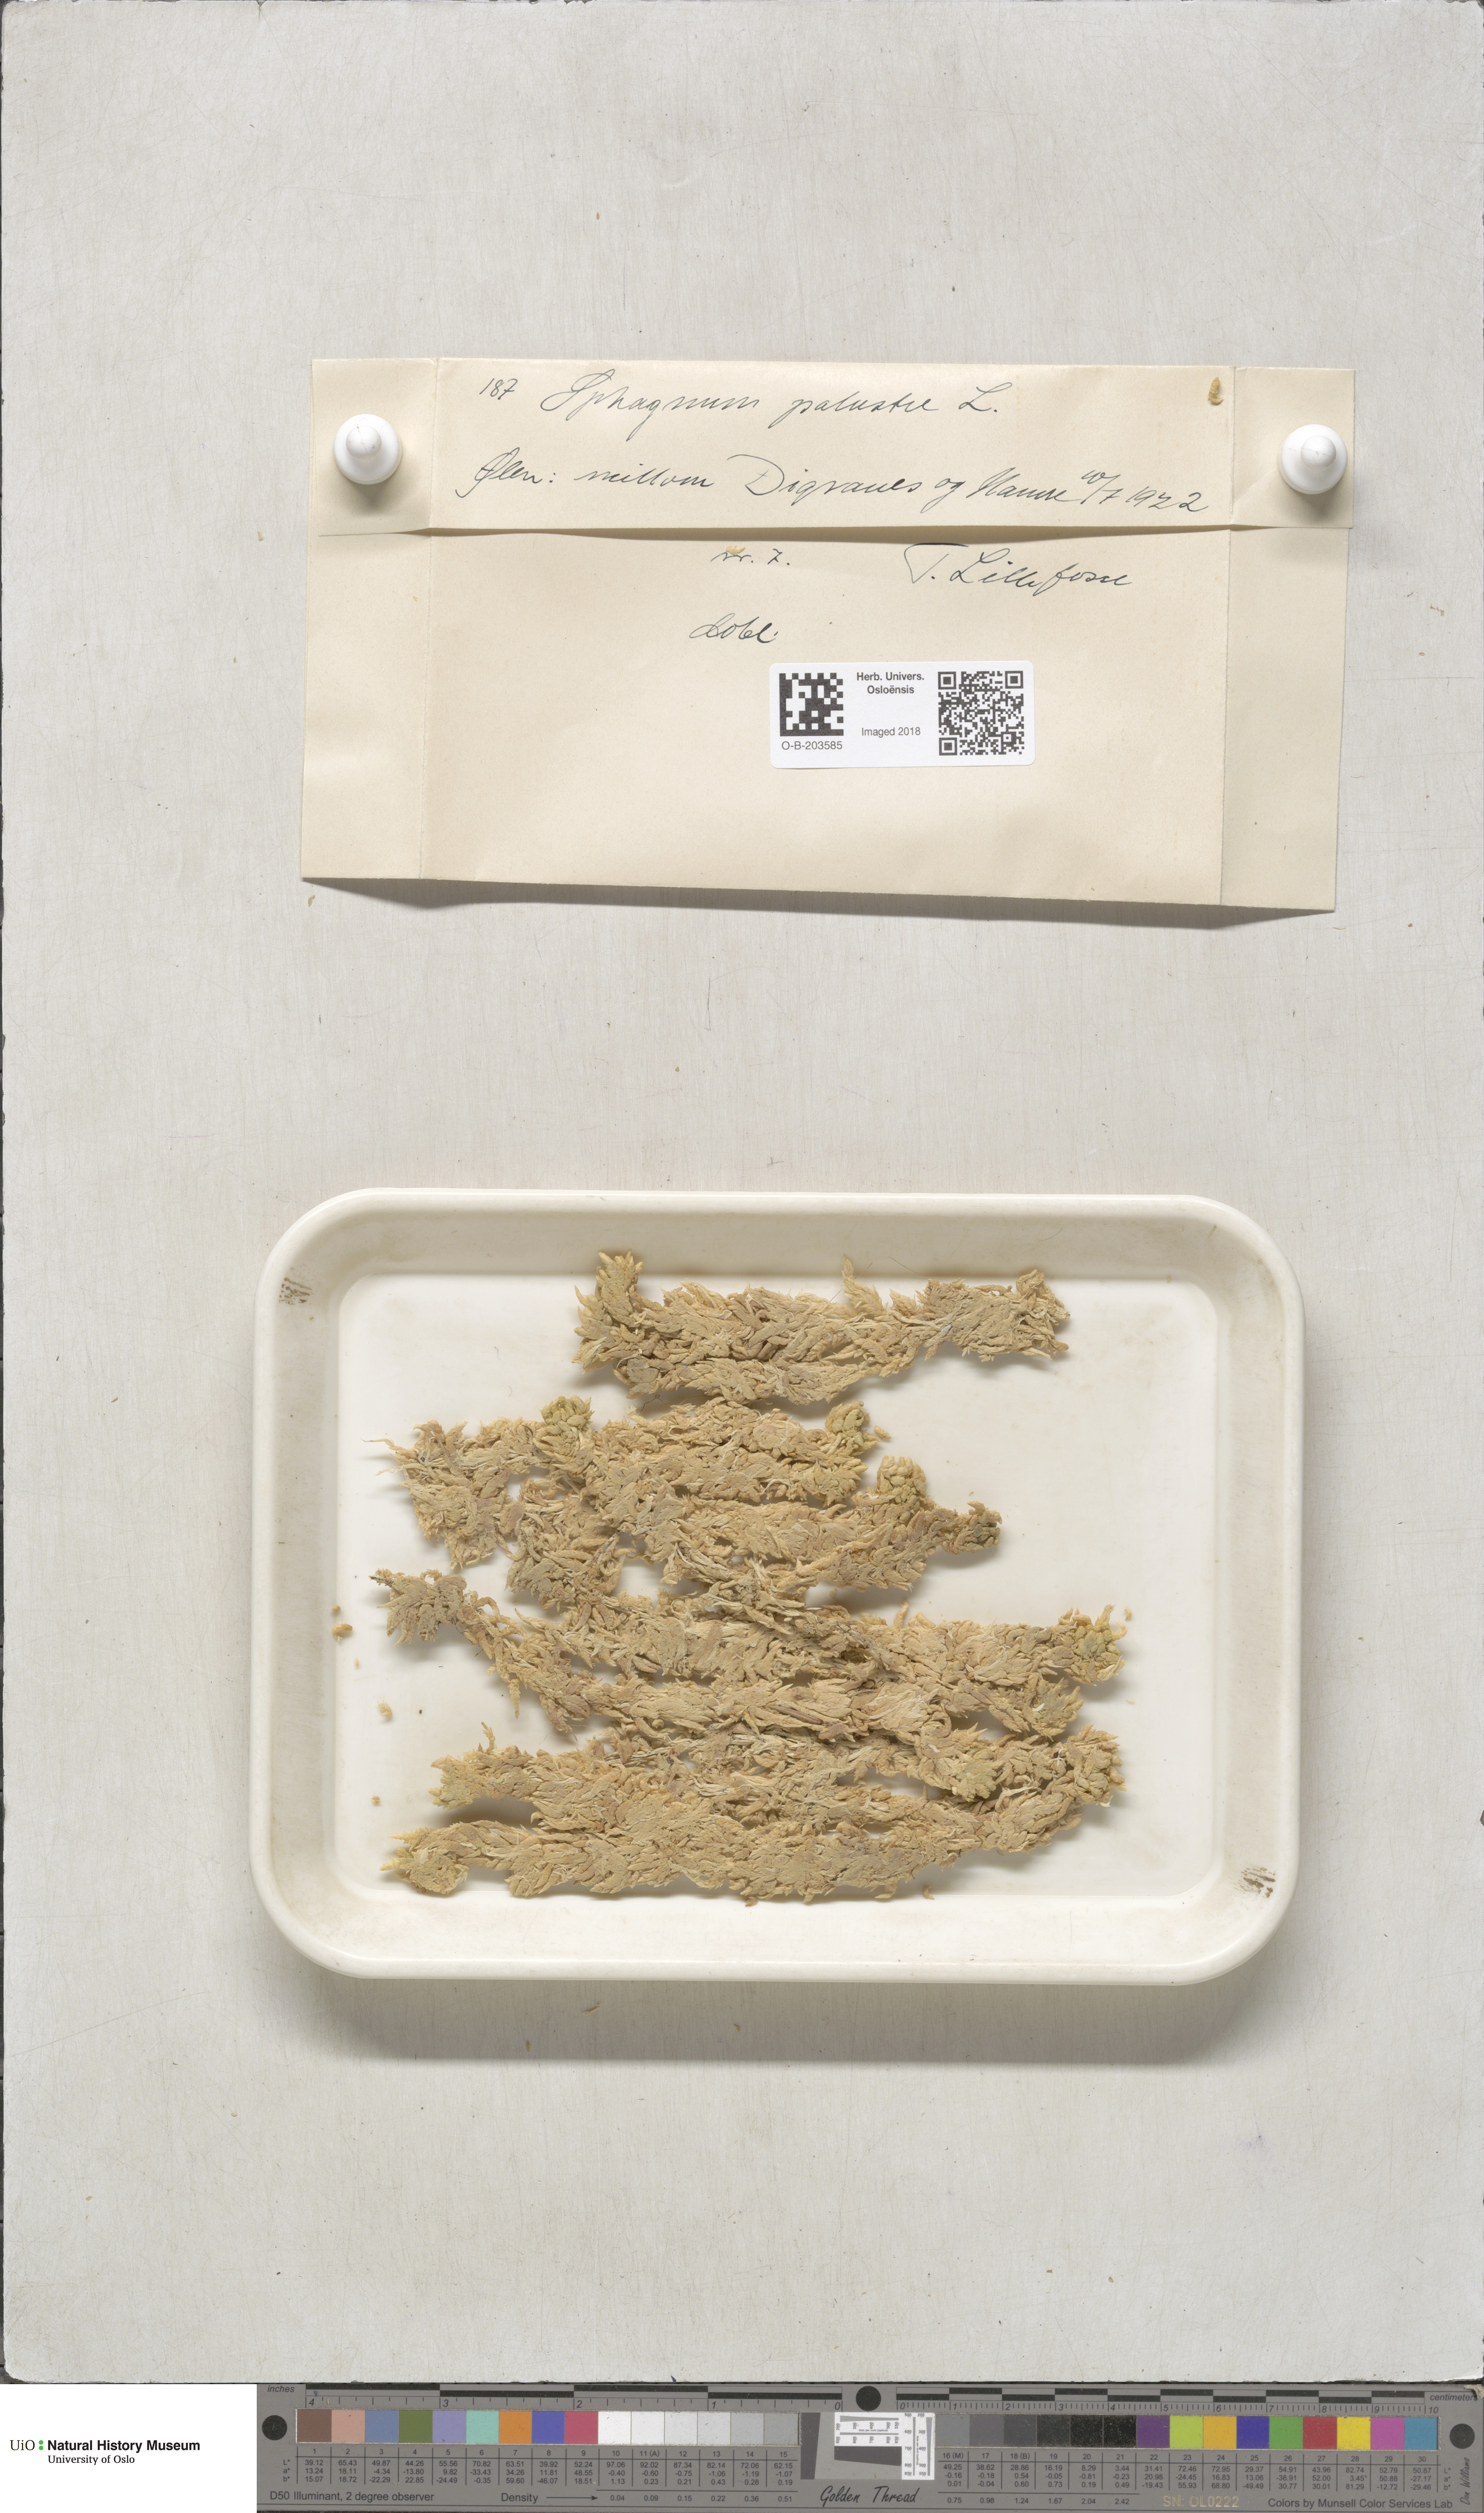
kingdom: Plantae
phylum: Bryophyta
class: Sphagnopsida
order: Sphagnales
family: Sphagnaceae
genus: Sphagnum
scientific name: Sphagnum palustre
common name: Blunt-leaved bog-moss
